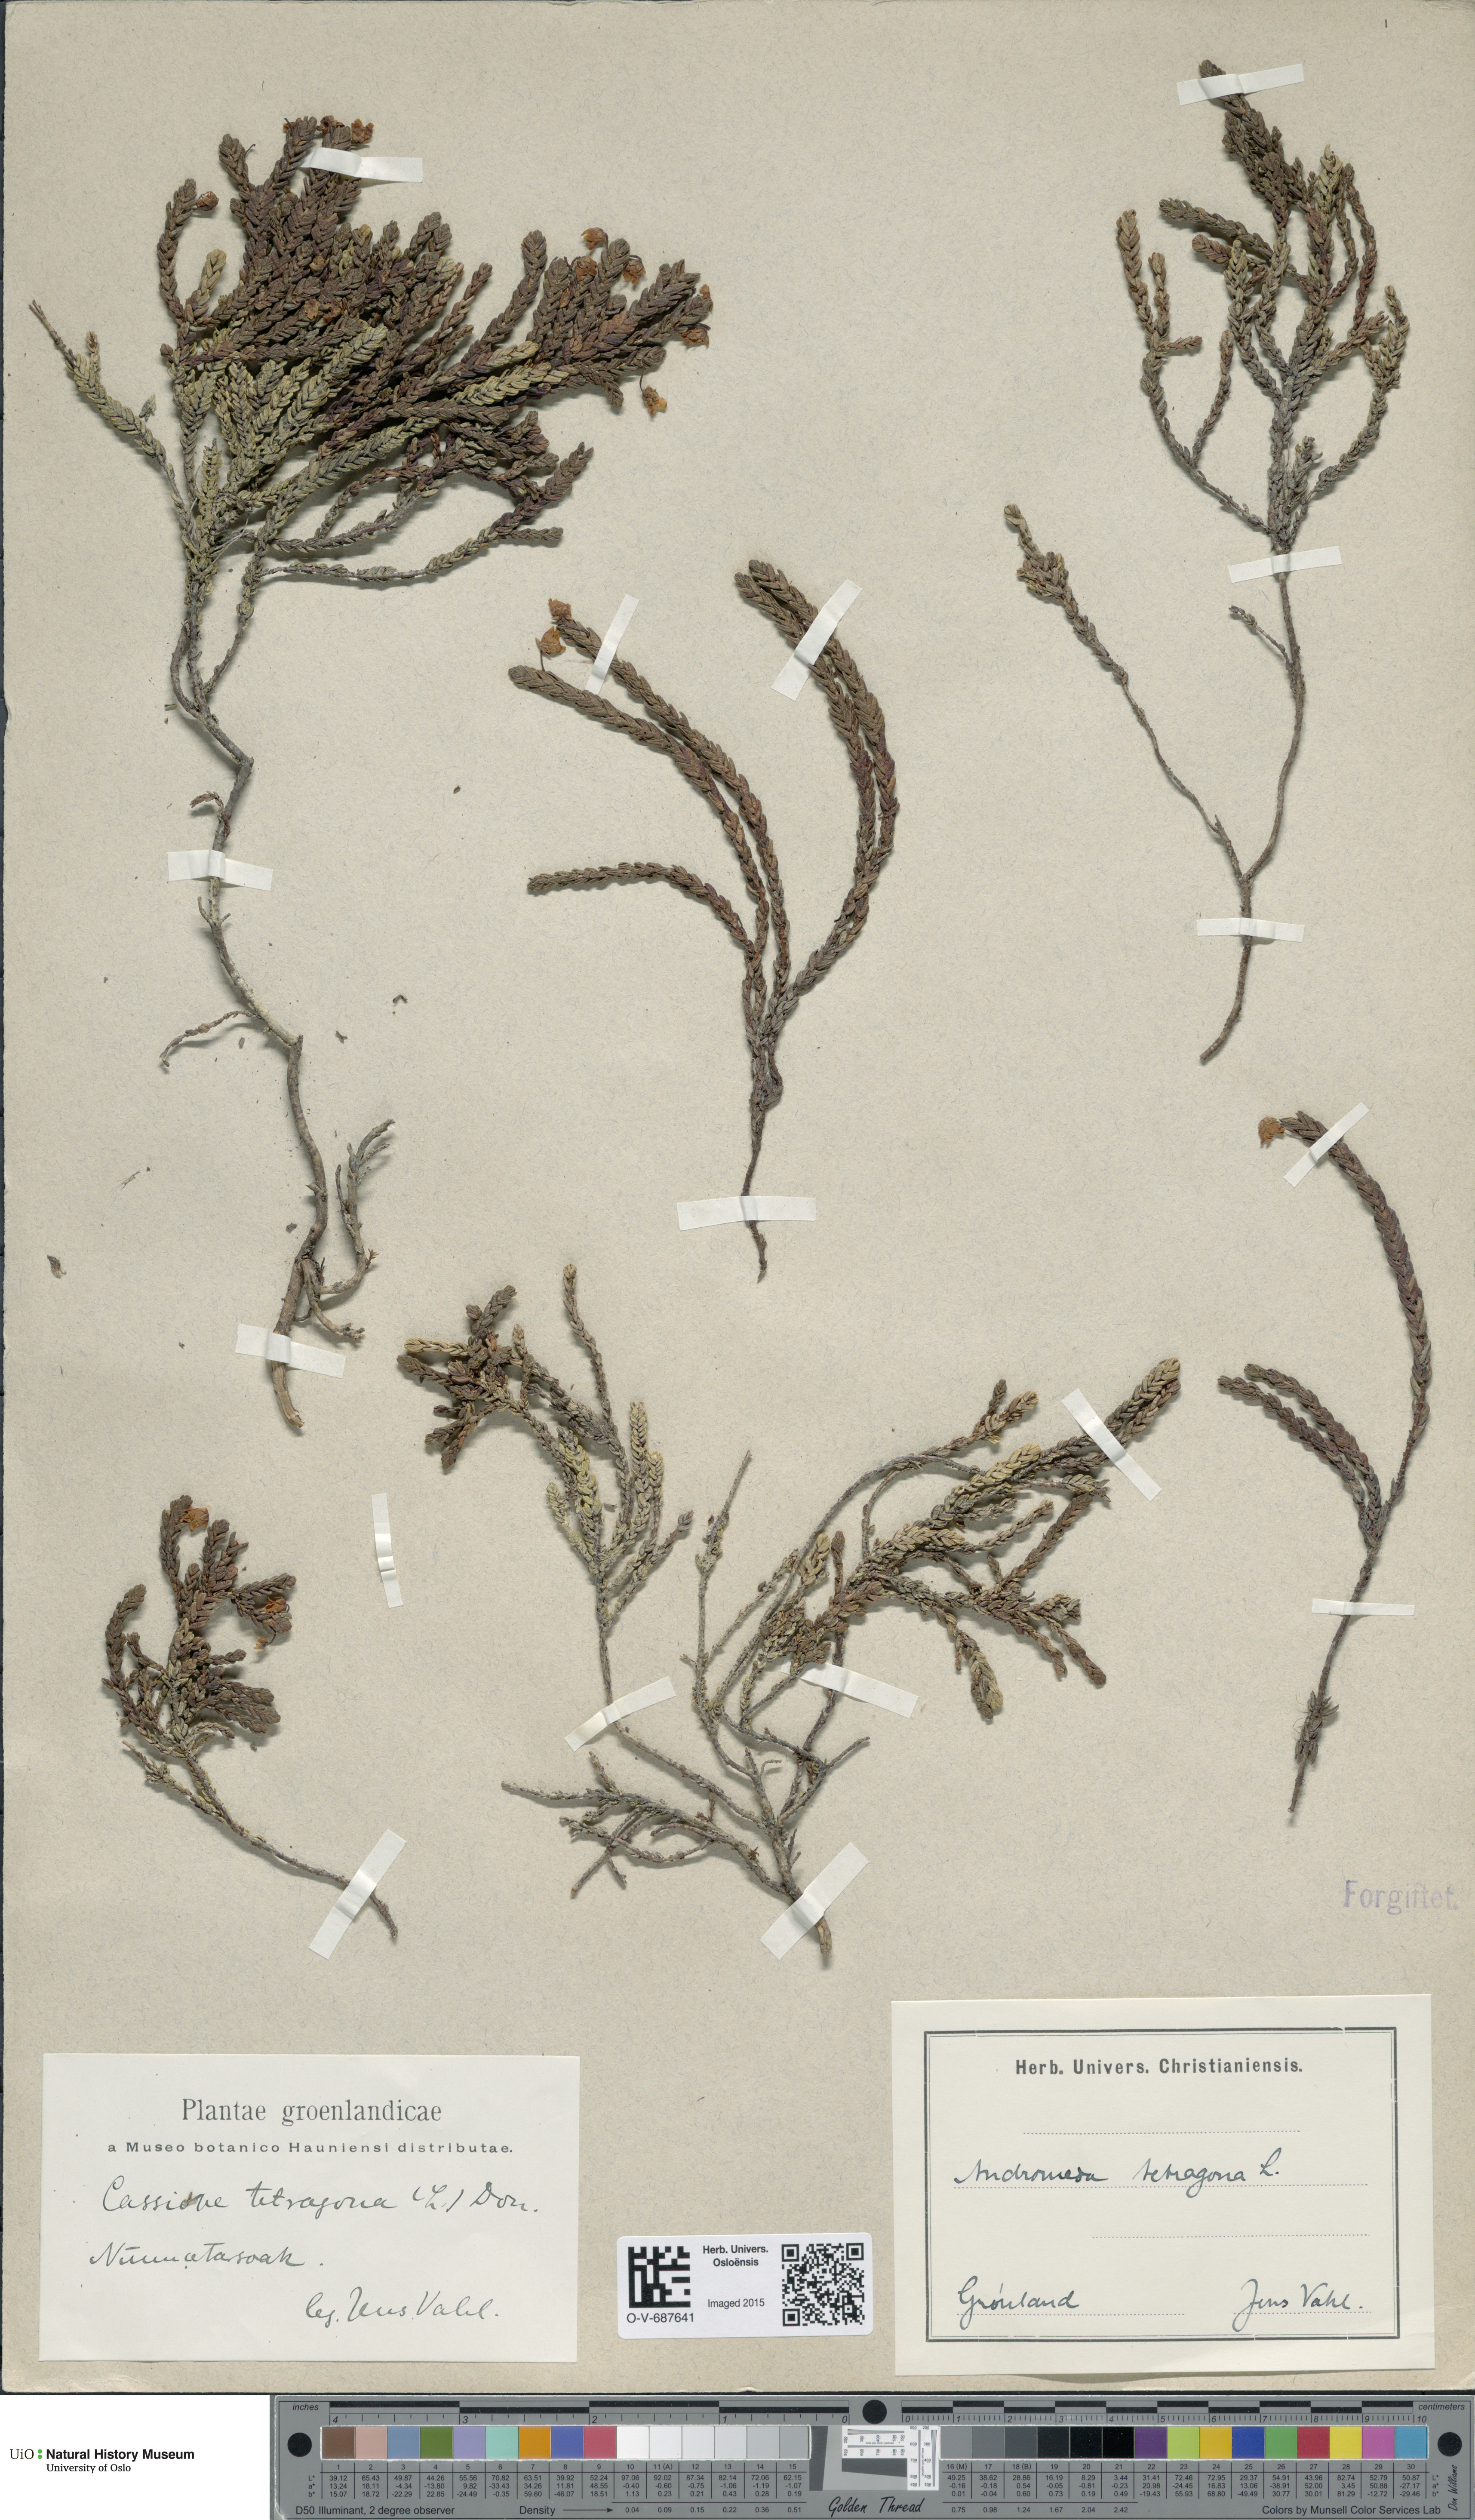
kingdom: Plantae
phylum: Tracheophyta
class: Magnoliopsida
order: Ericales
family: Ericaceae
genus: Cassiope
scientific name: Cassiope tetragona
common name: Arctic bell heather
